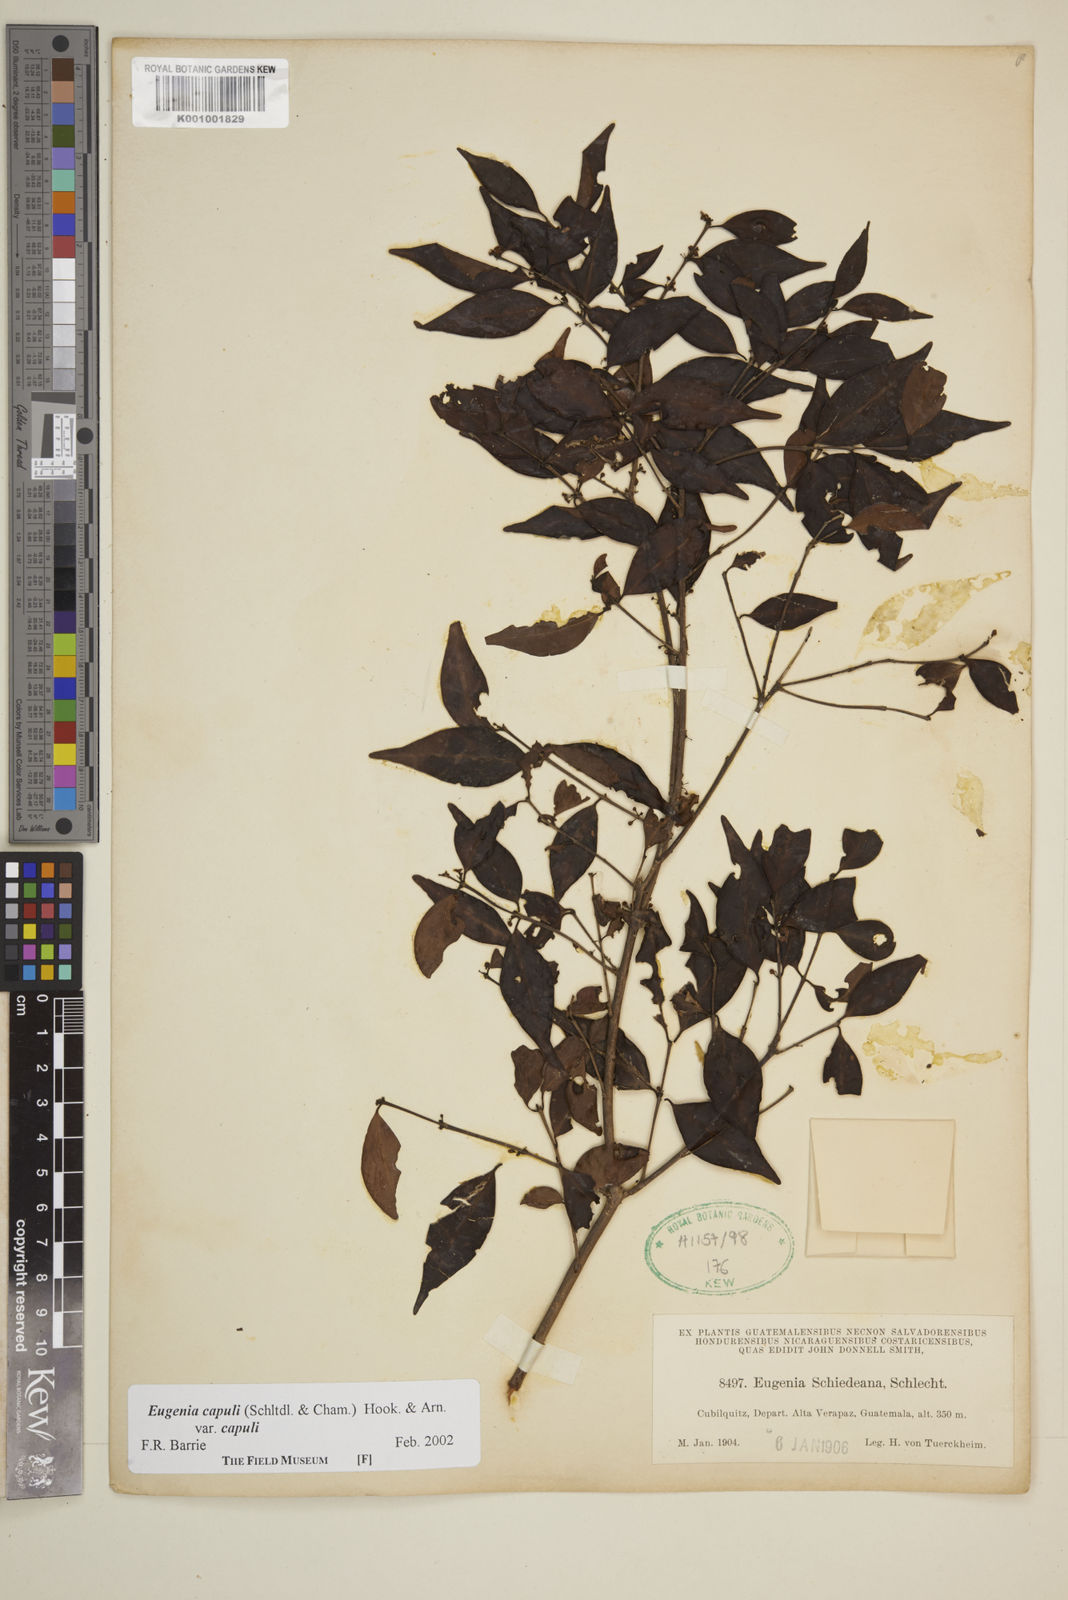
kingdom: Plantae
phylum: Tracheophyta
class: Magnoliopsida
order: Myrtales
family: Myrtaceae
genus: Eugenia
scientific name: Eugenia capuli
